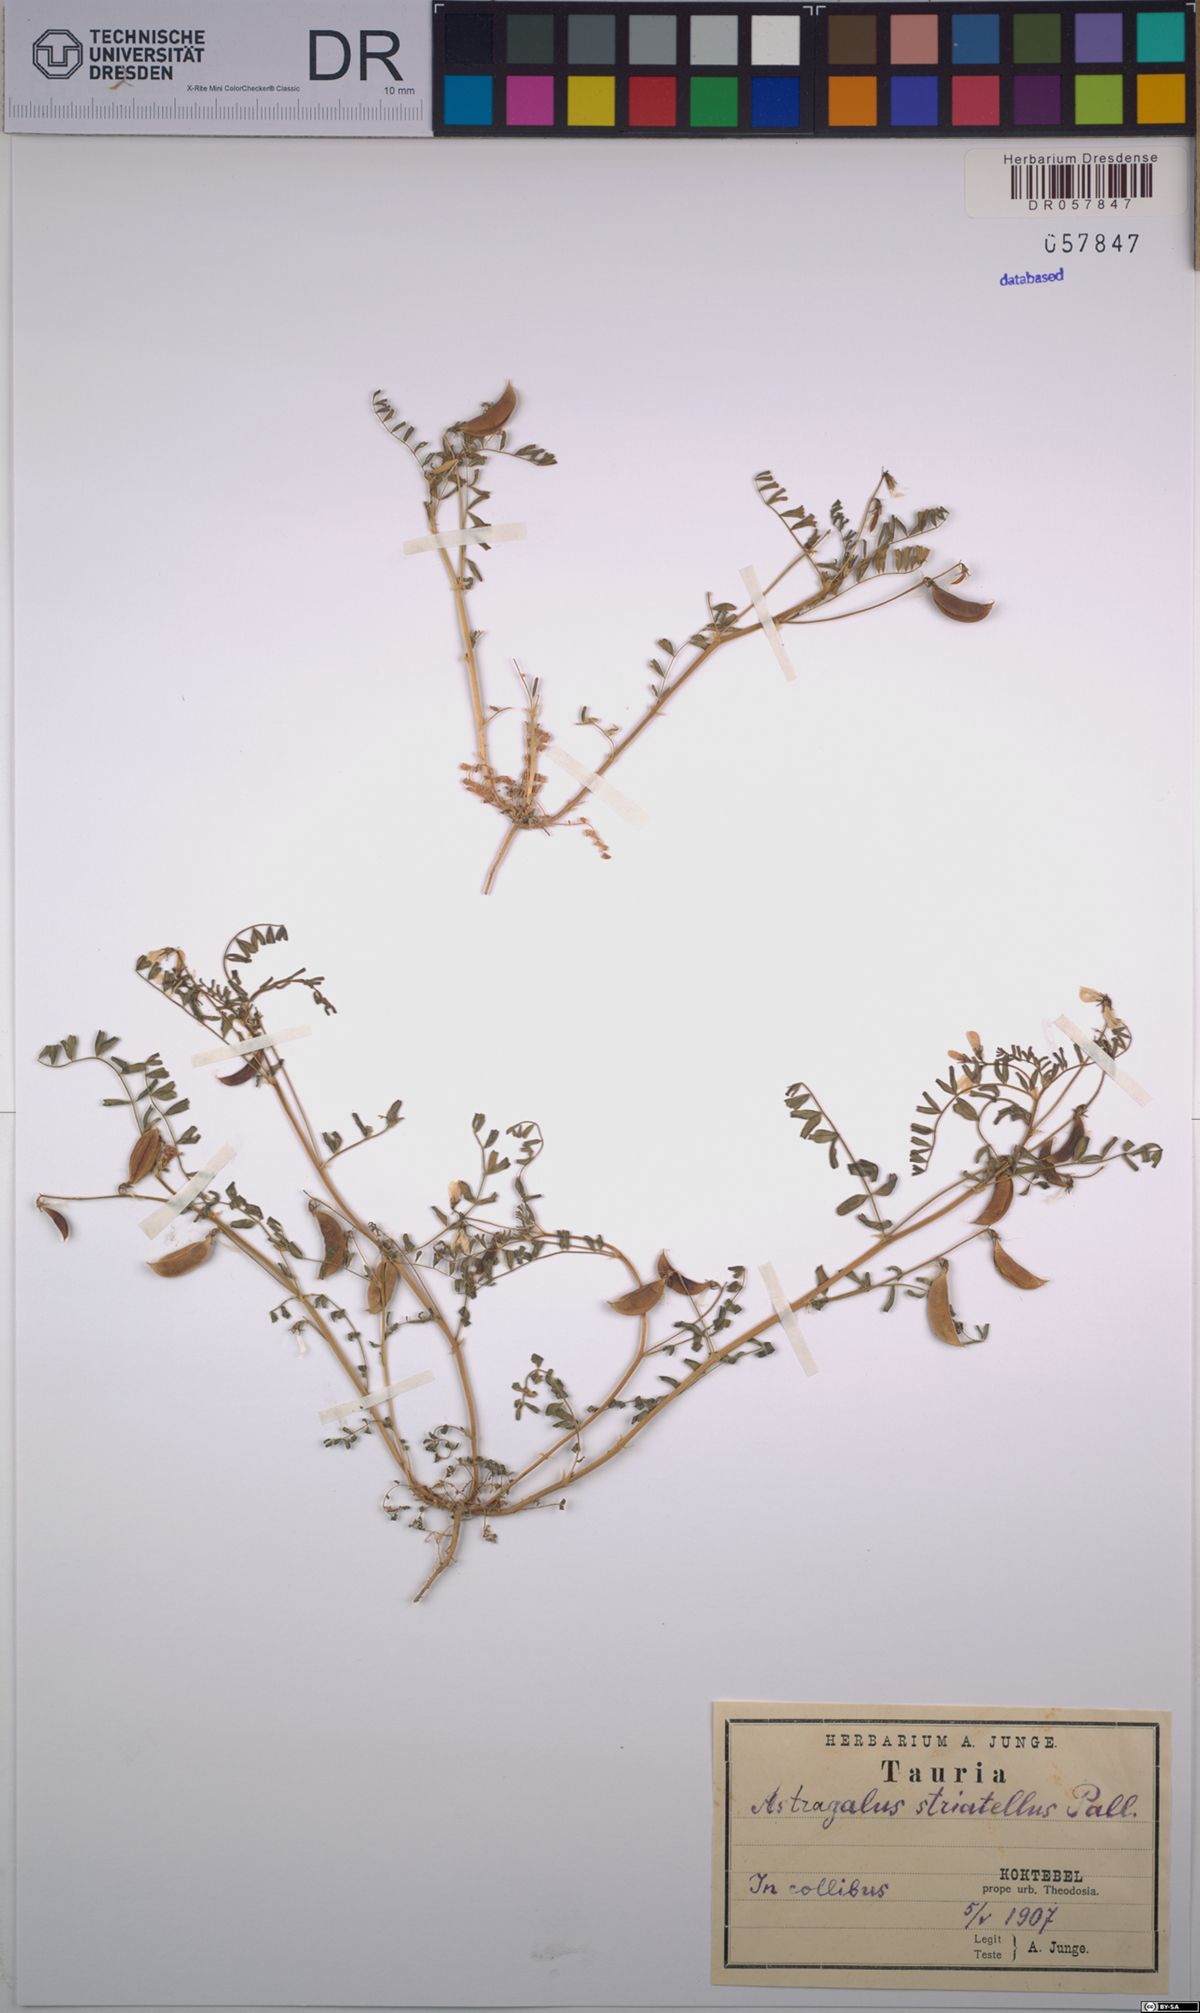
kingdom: Plantae
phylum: Tracheophyta
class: Magnoliopsida
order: Fabales
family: Fabaceae
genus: Astragalus
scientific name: Astragalus guttatus
